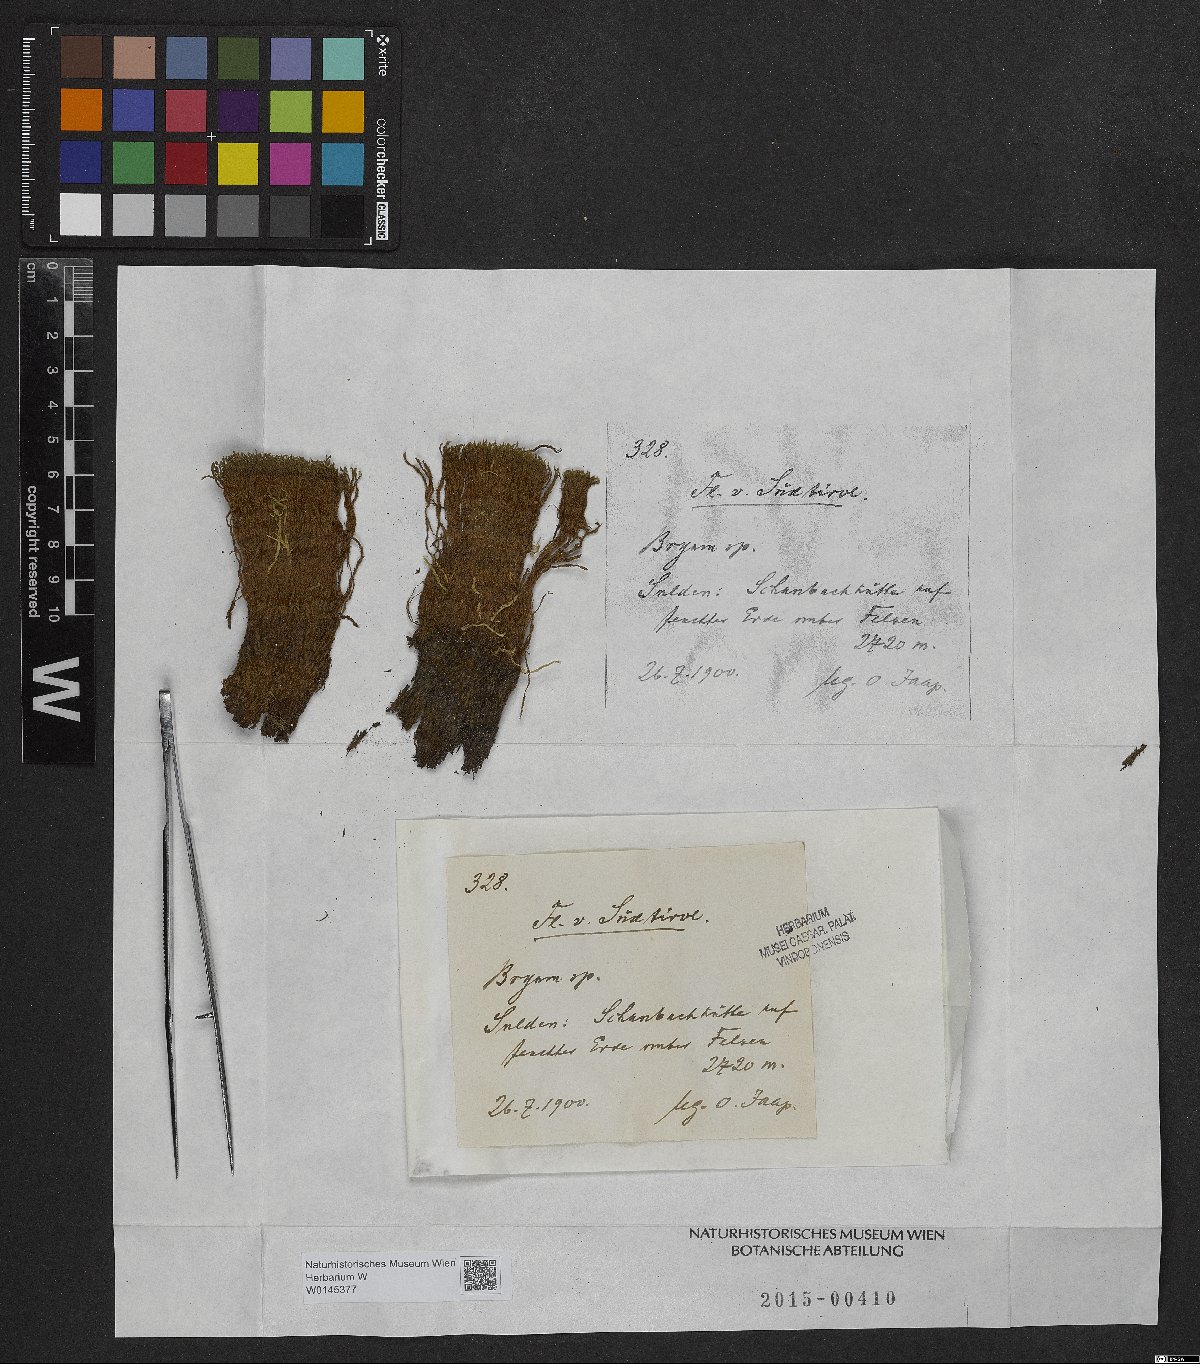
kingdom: Plantae
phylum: Bryophyta
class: Bryopsida
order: Bryales
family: Bryaceae
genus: Bryum
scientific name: Bryum
